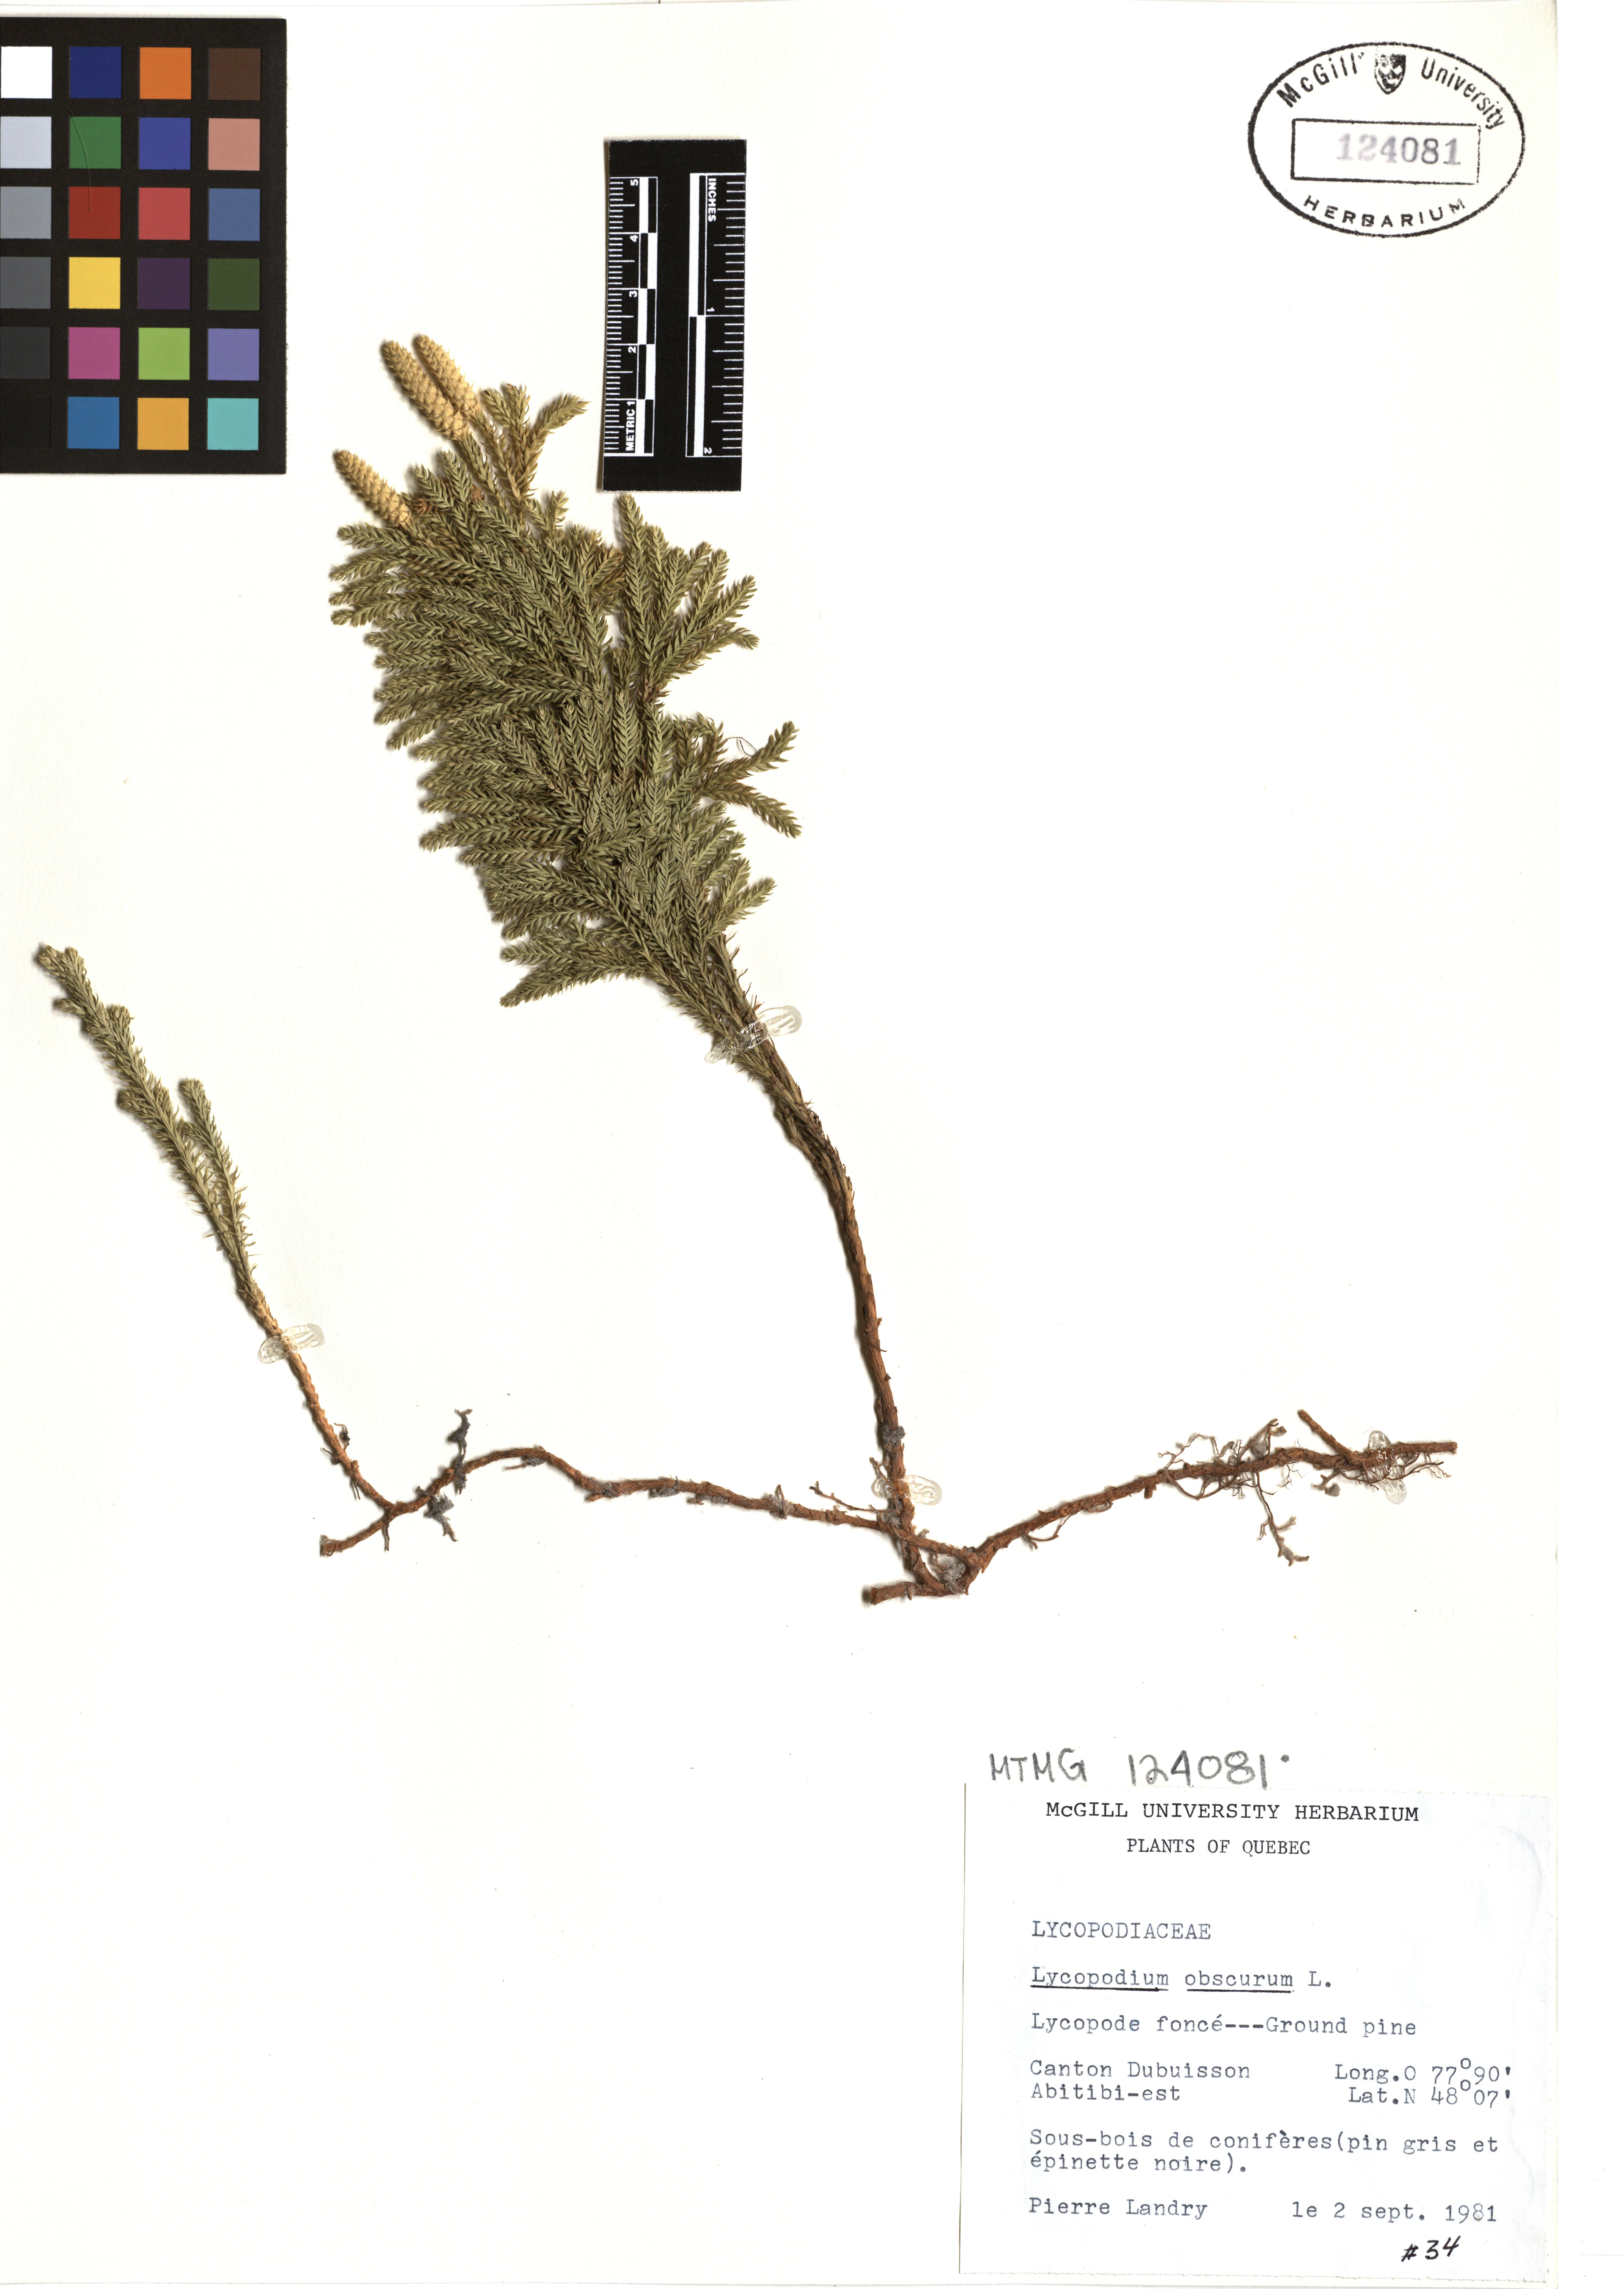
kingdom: Plantae
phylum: Tracheophyta
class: Lycopodiopsida
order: Lycopodiales
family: Lycopodiaceae
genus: Dendrolycopodium
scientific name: Dendrolycopodium obscurum
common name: Common ground-pine
